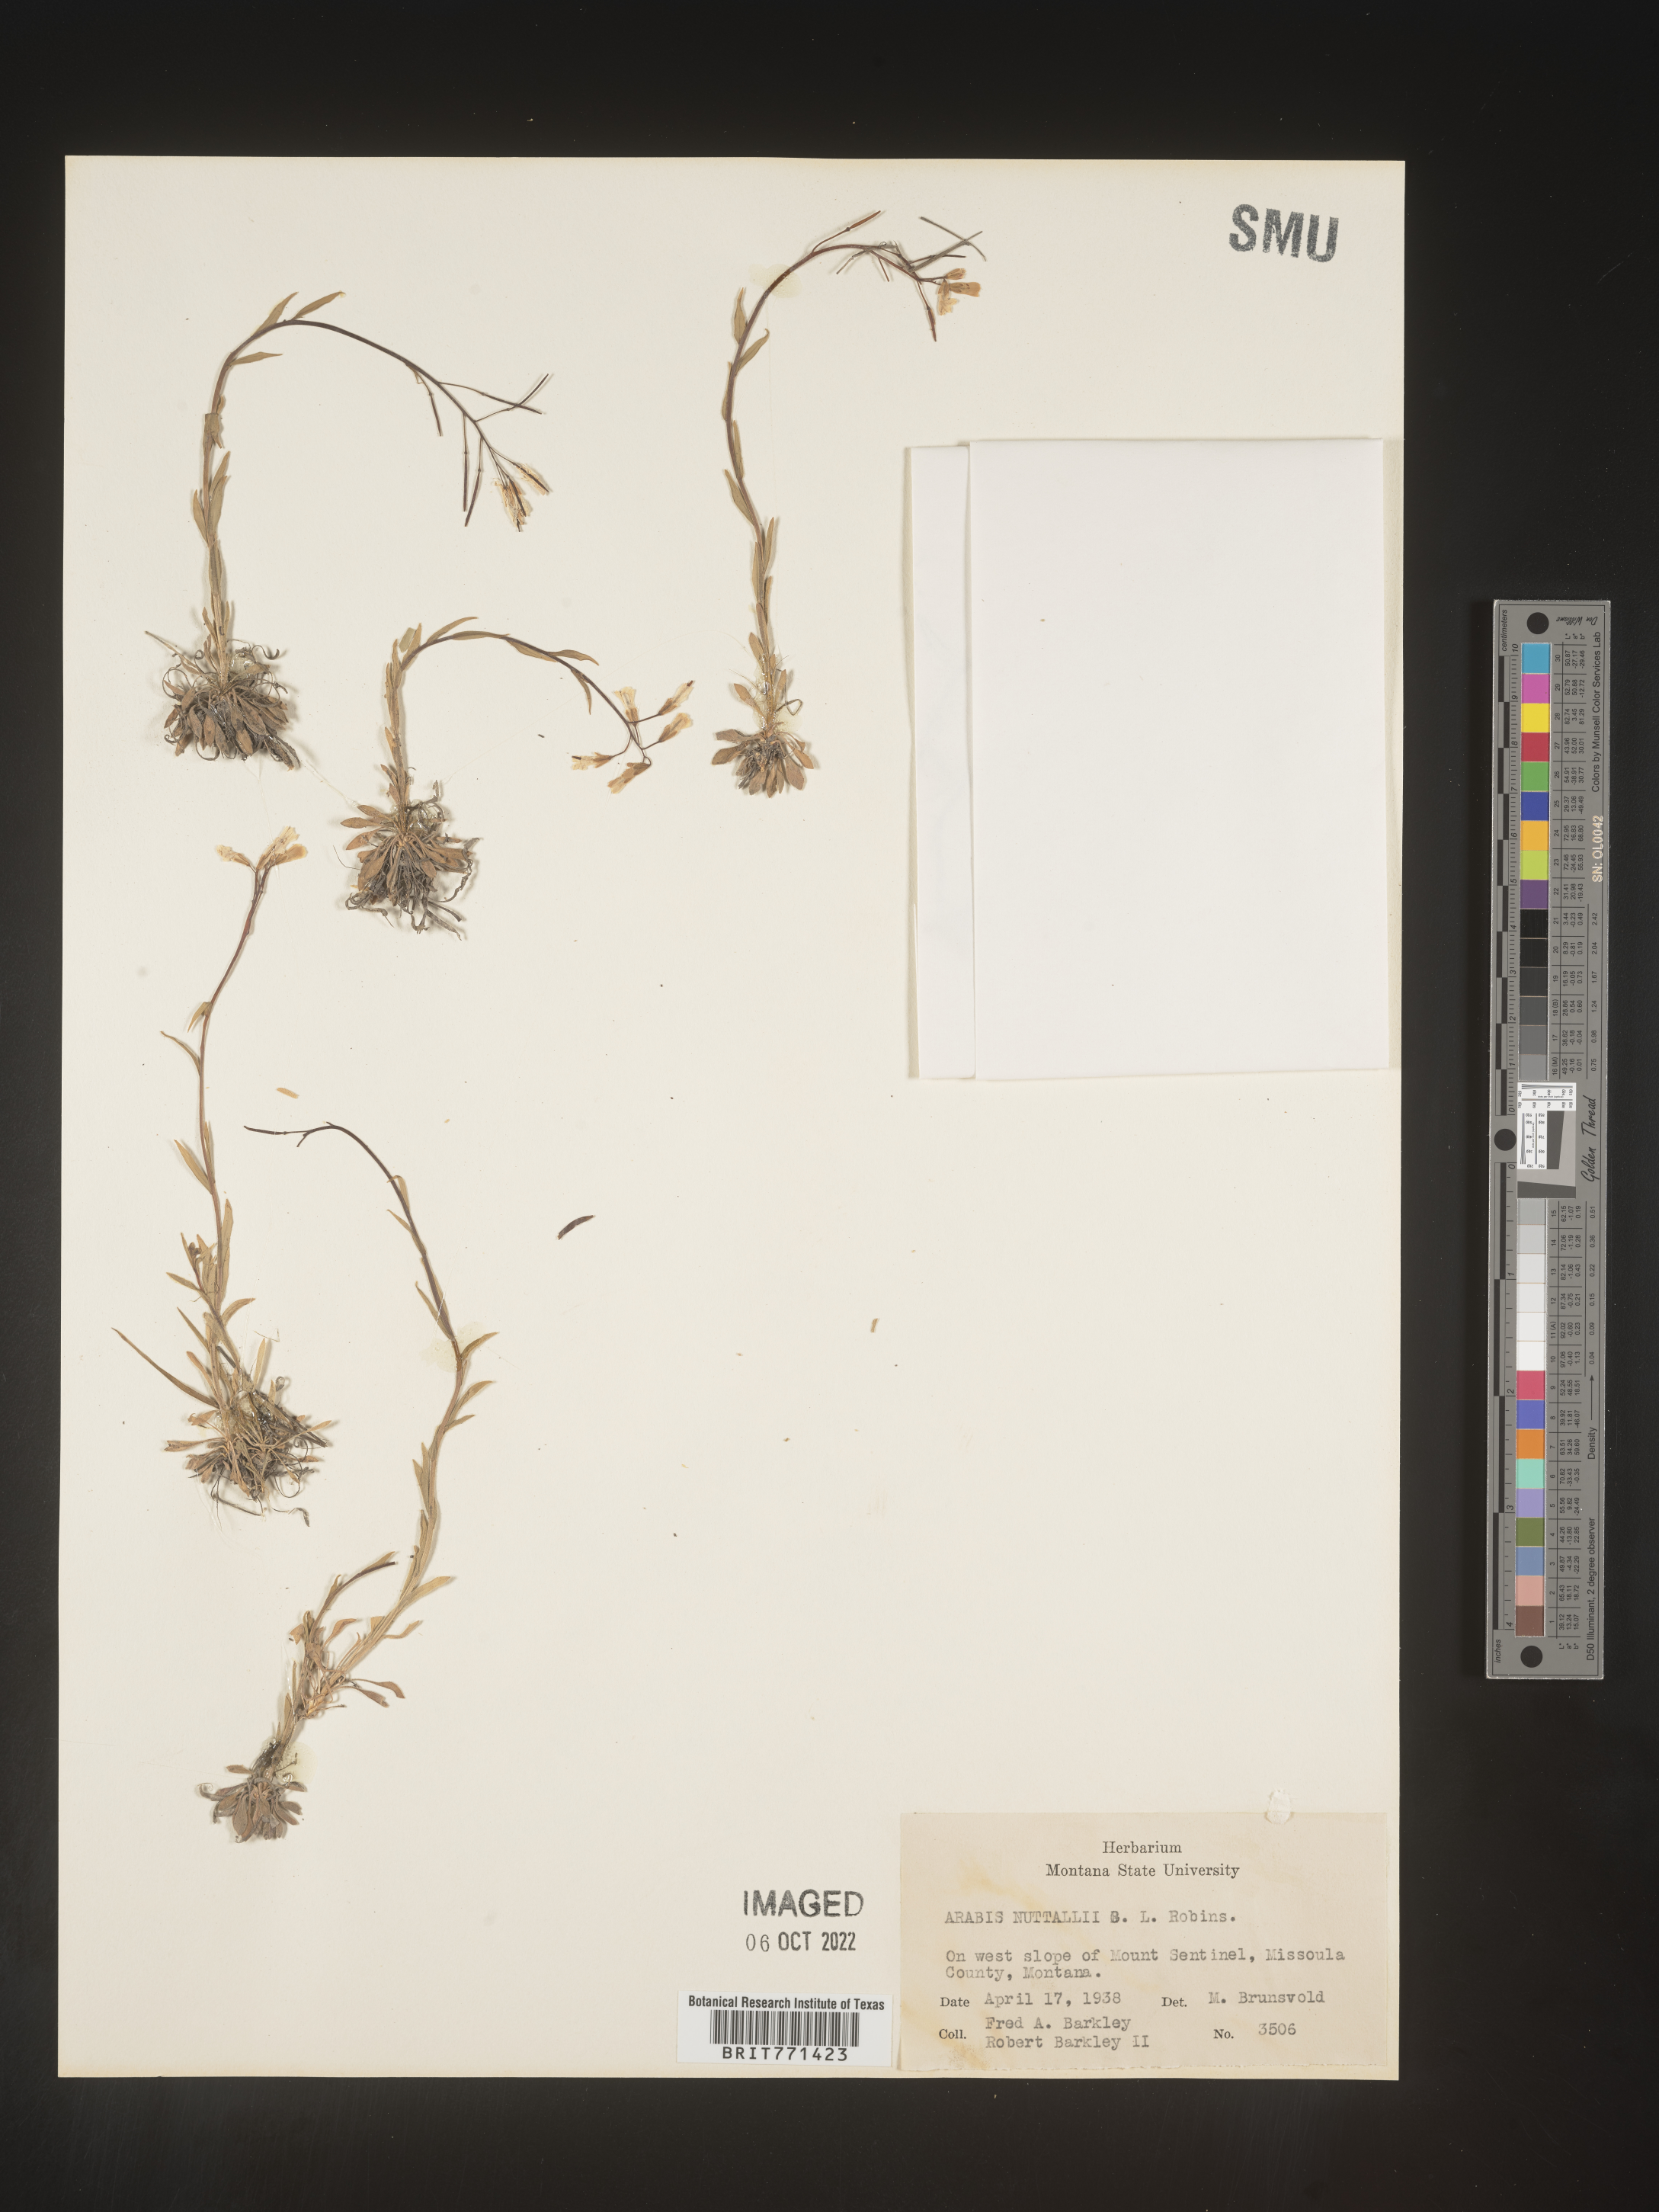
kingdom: Plantae
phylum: Tracheophyta
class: Magnoliopsida
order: Brassicales
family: Brassicaceae
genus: Arabis
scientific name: Arabis
